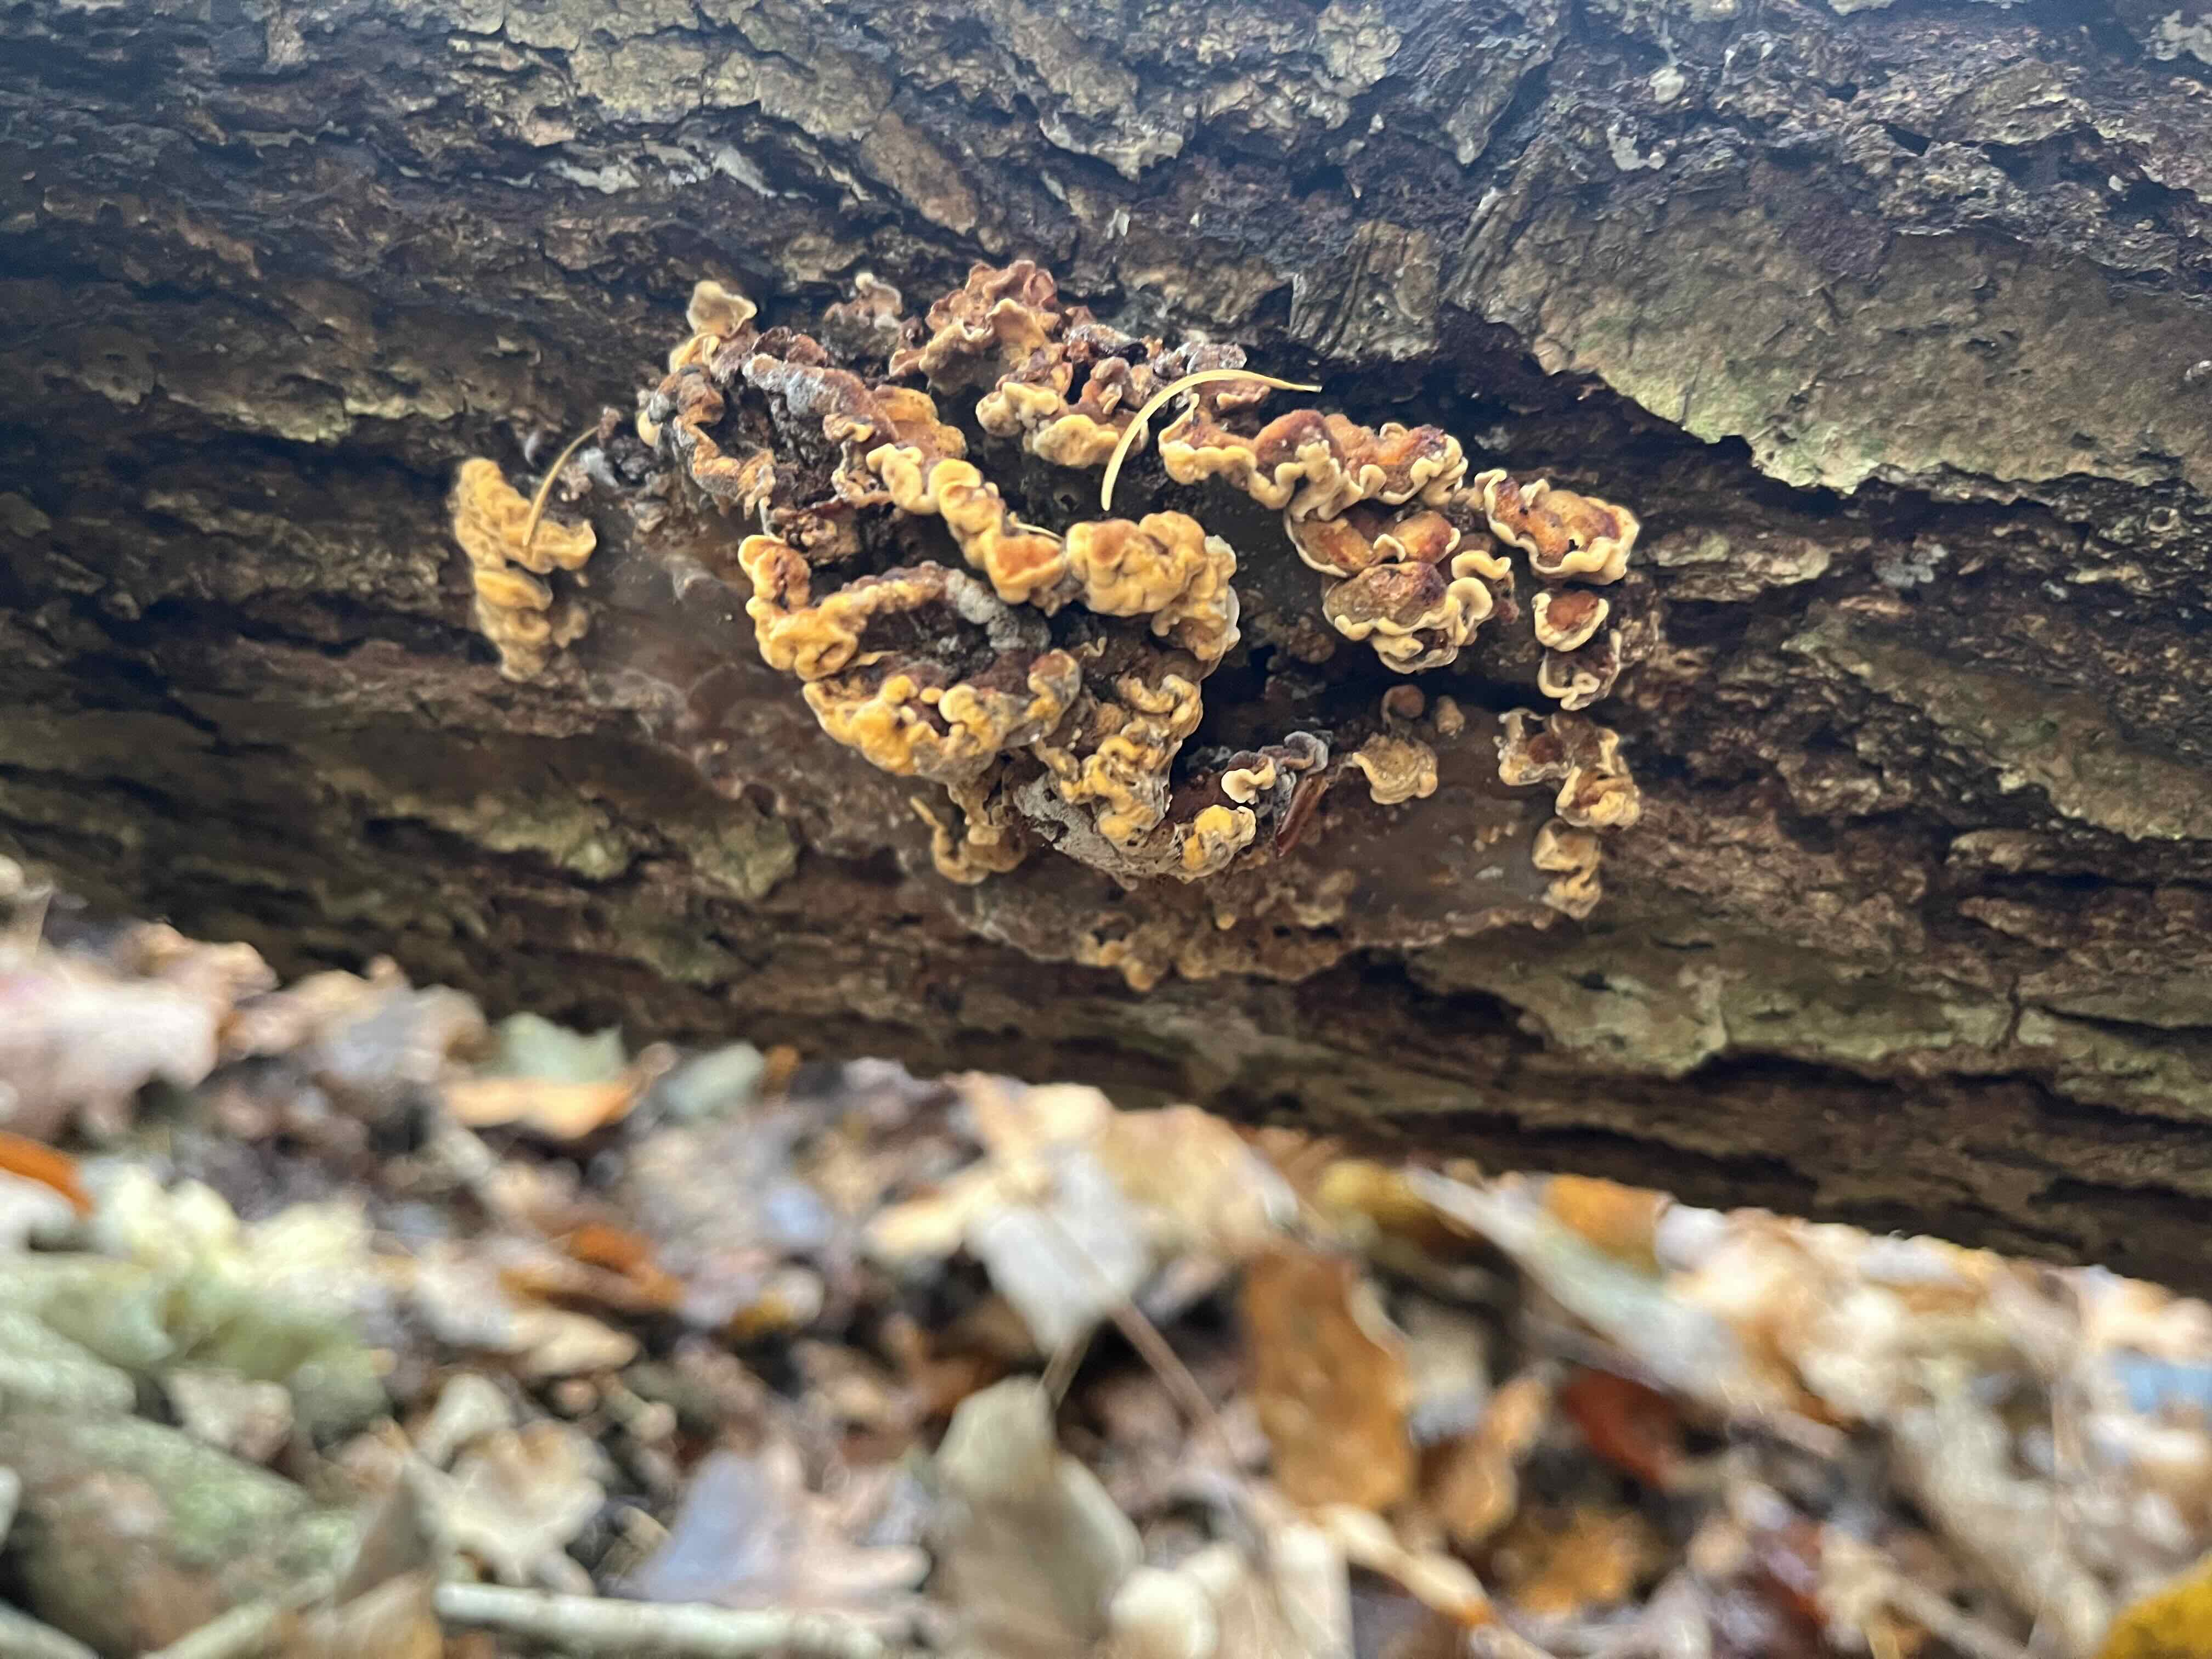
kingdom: Fungi
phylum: Basidiomycota
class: Agaricomycetes
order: Russulales
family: Stereaceae
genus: Stereum
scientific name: Stereum
